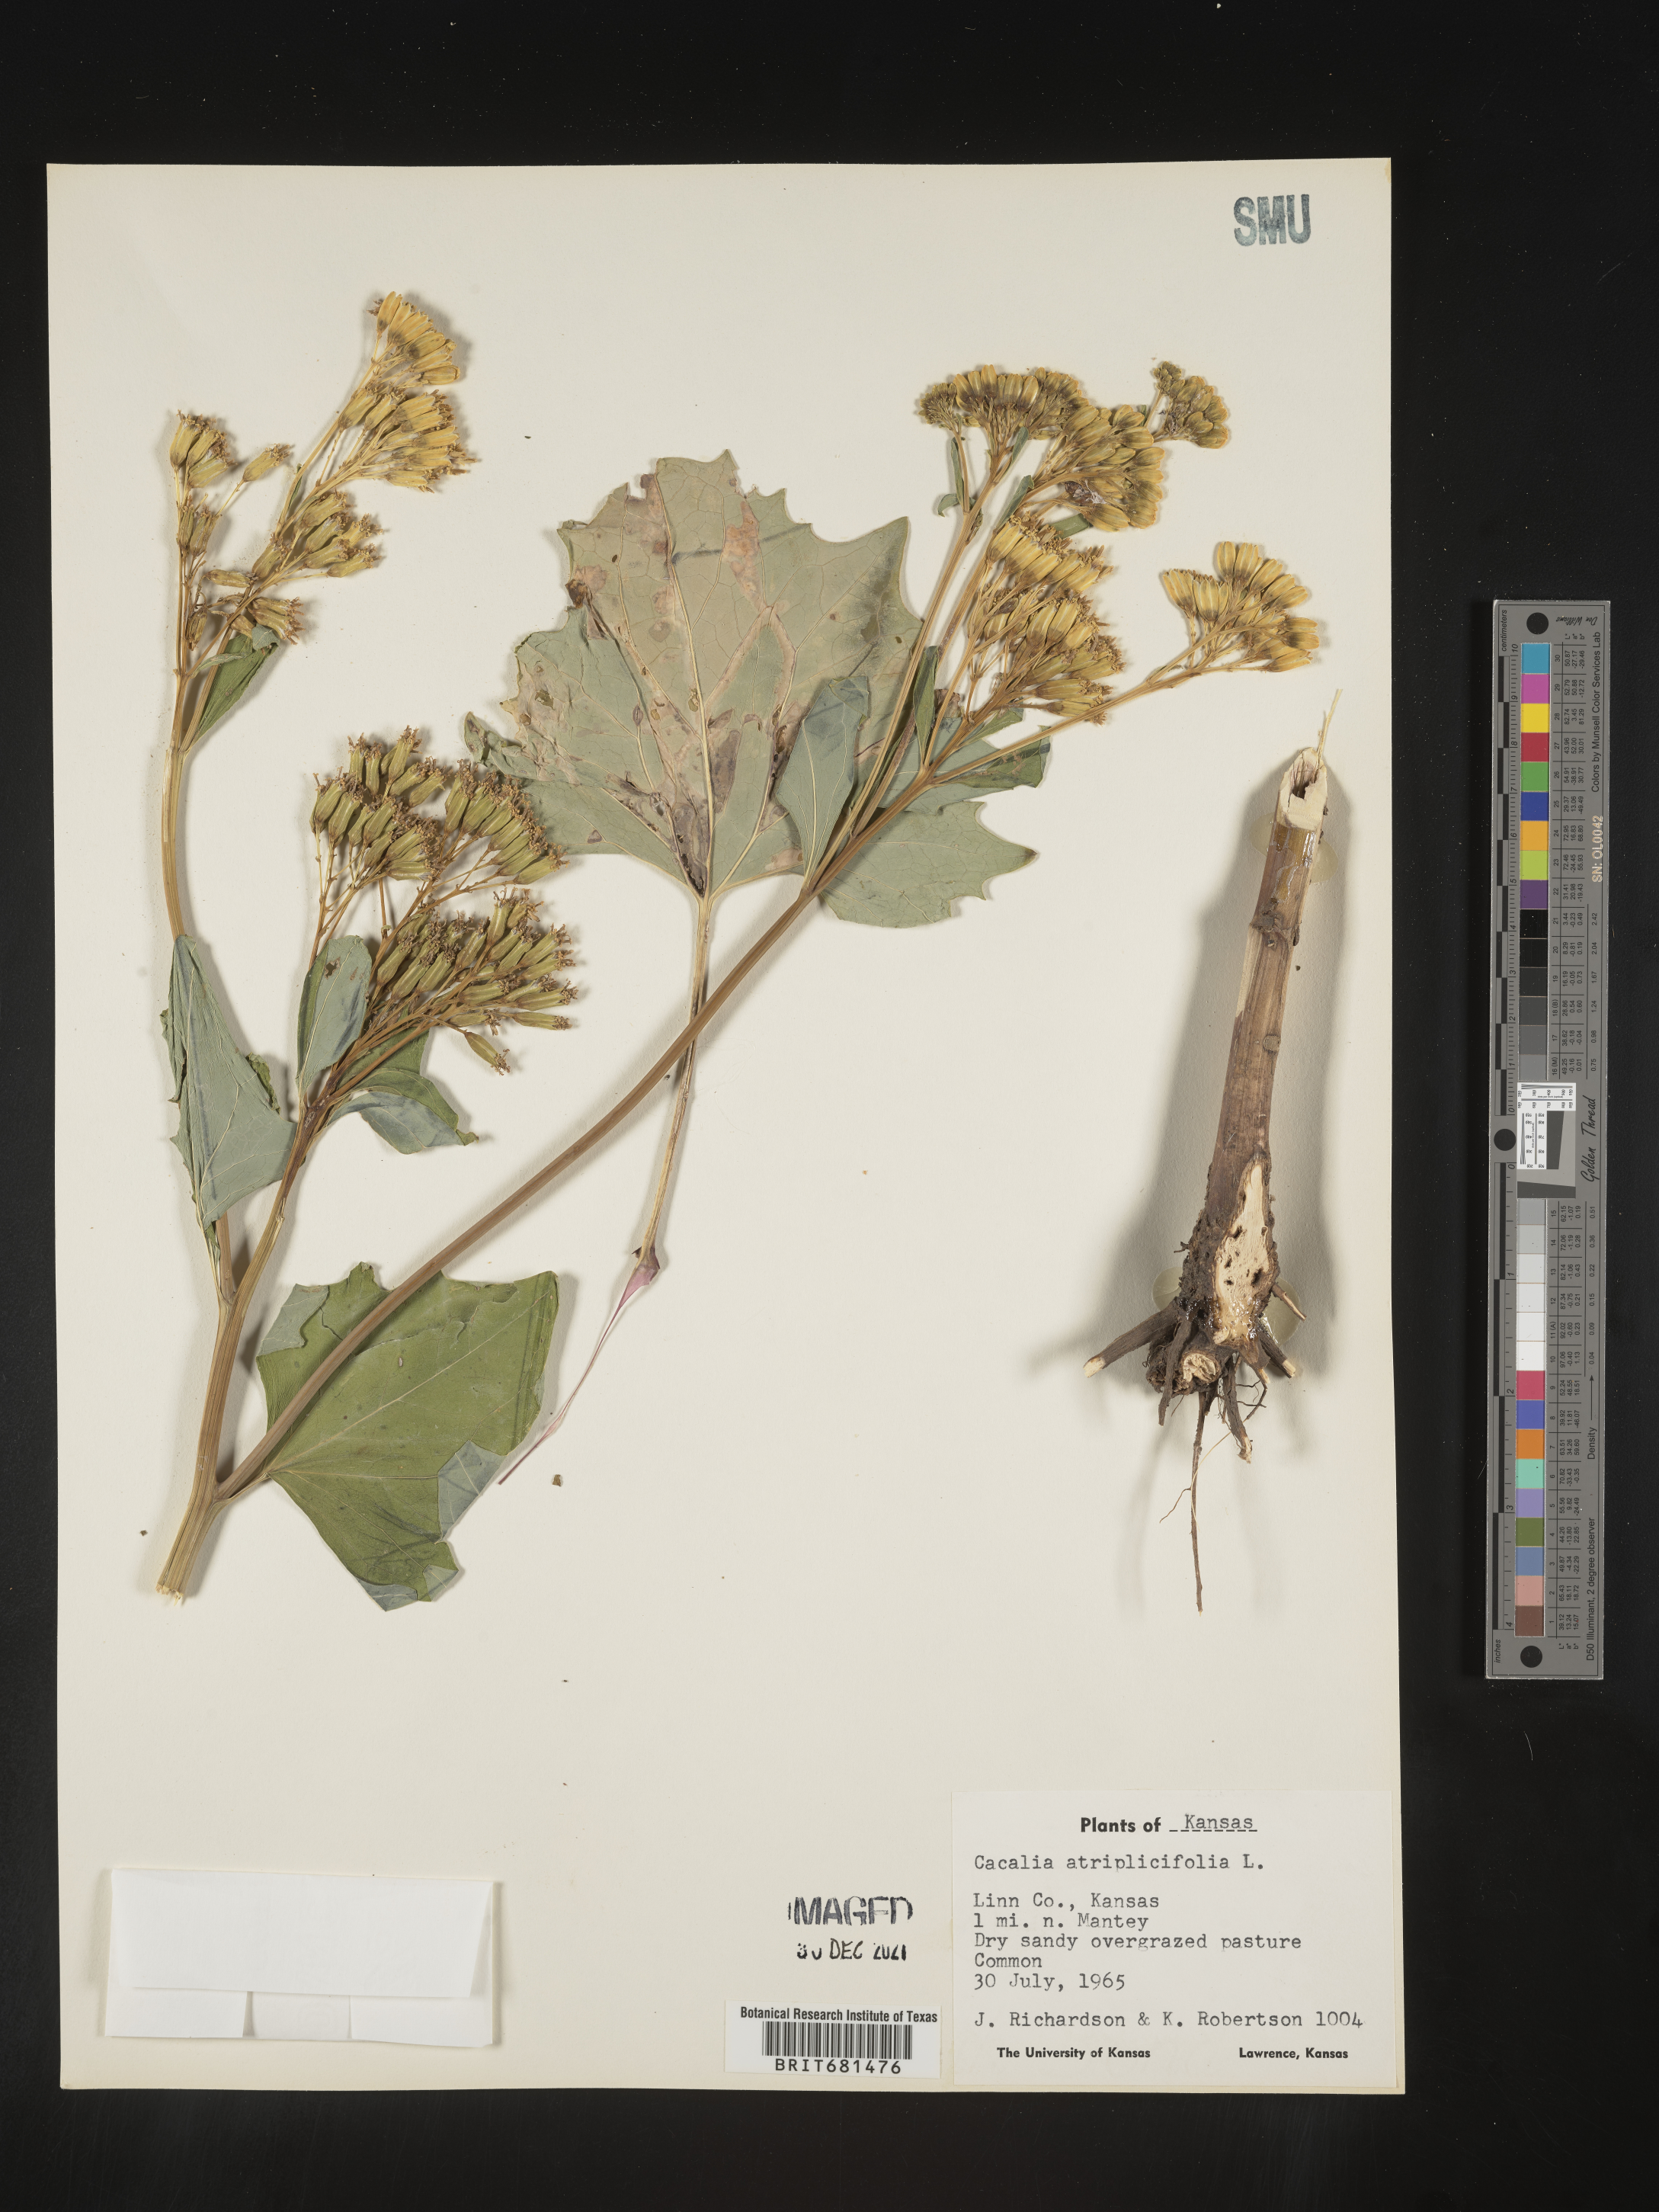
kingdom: Plantae
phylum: Tracheophyta
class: Magnoliopsida
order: Asterales
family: Asteraceae
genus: Arnoglossum
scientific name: Arnoglossum atriplicifolium
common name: Pale indian-plantain
